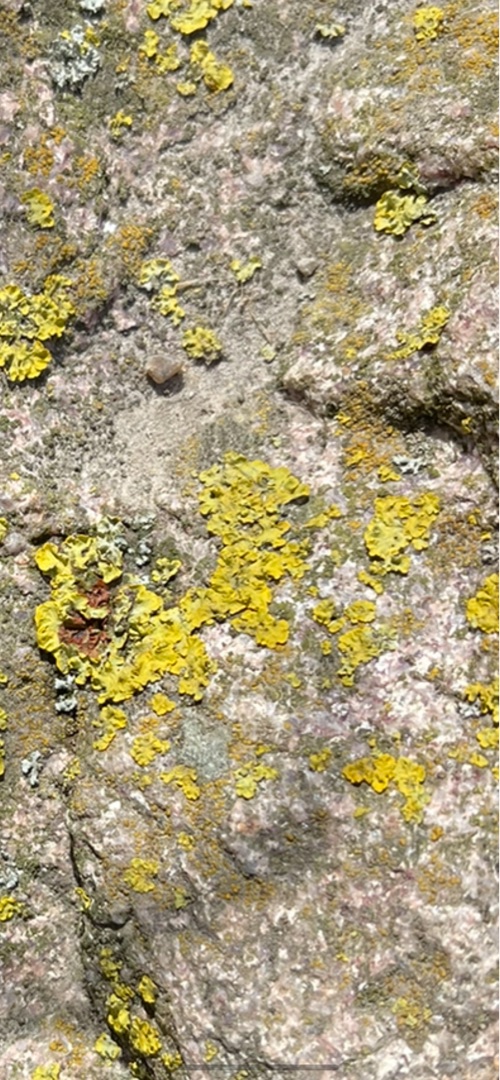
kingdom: Fungi
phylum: Ascomycota
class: Lecanoromycetes
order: Teloschistales
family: Teloschistaceae
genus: Xanthoria
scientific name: Xanthoria parietina
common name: Almindelig væggelav
